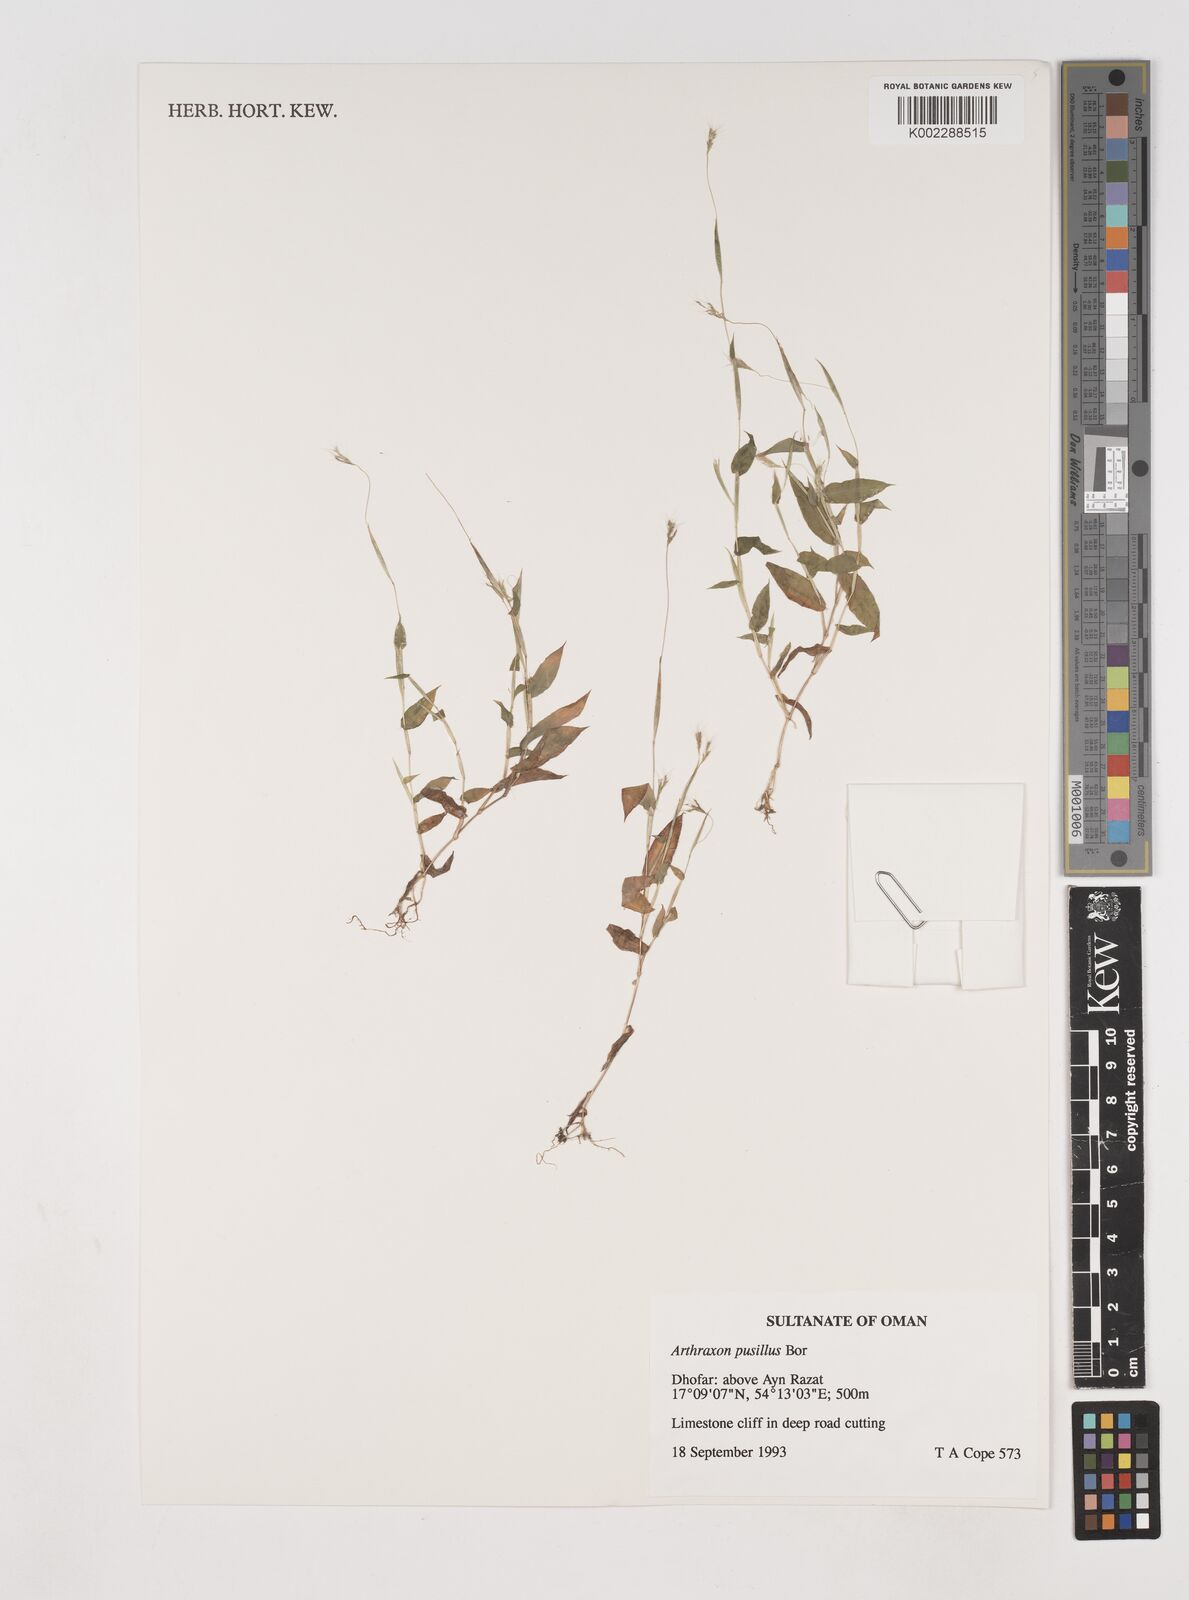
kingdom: Plantae
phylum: Tracheophyta
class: Liliopsida
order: Poales
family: Poaceae
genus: Arthraxon
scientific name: Arthraxon junnarensis
